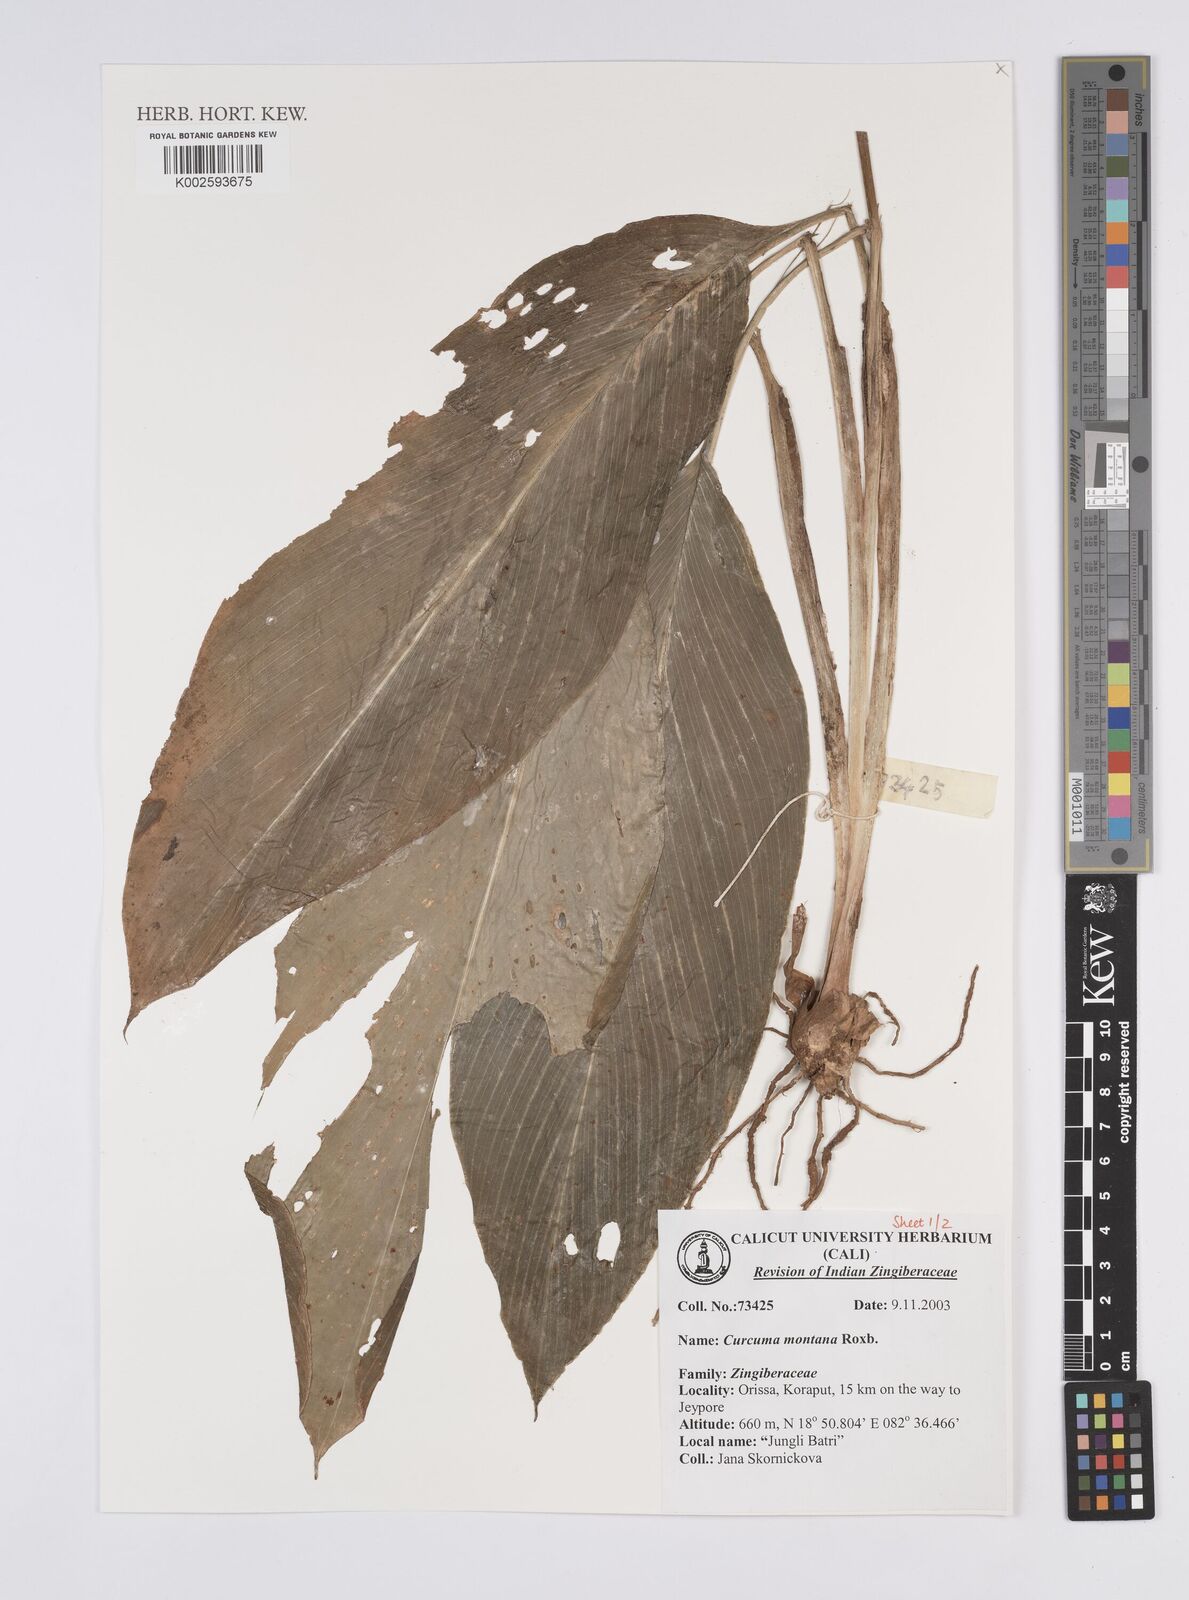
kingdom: Plantae
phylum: Tracheophyta
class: Liliopsida
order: Zingiberales
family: Zingiberaceae
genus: Curcuma
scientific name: Curcuma montana
